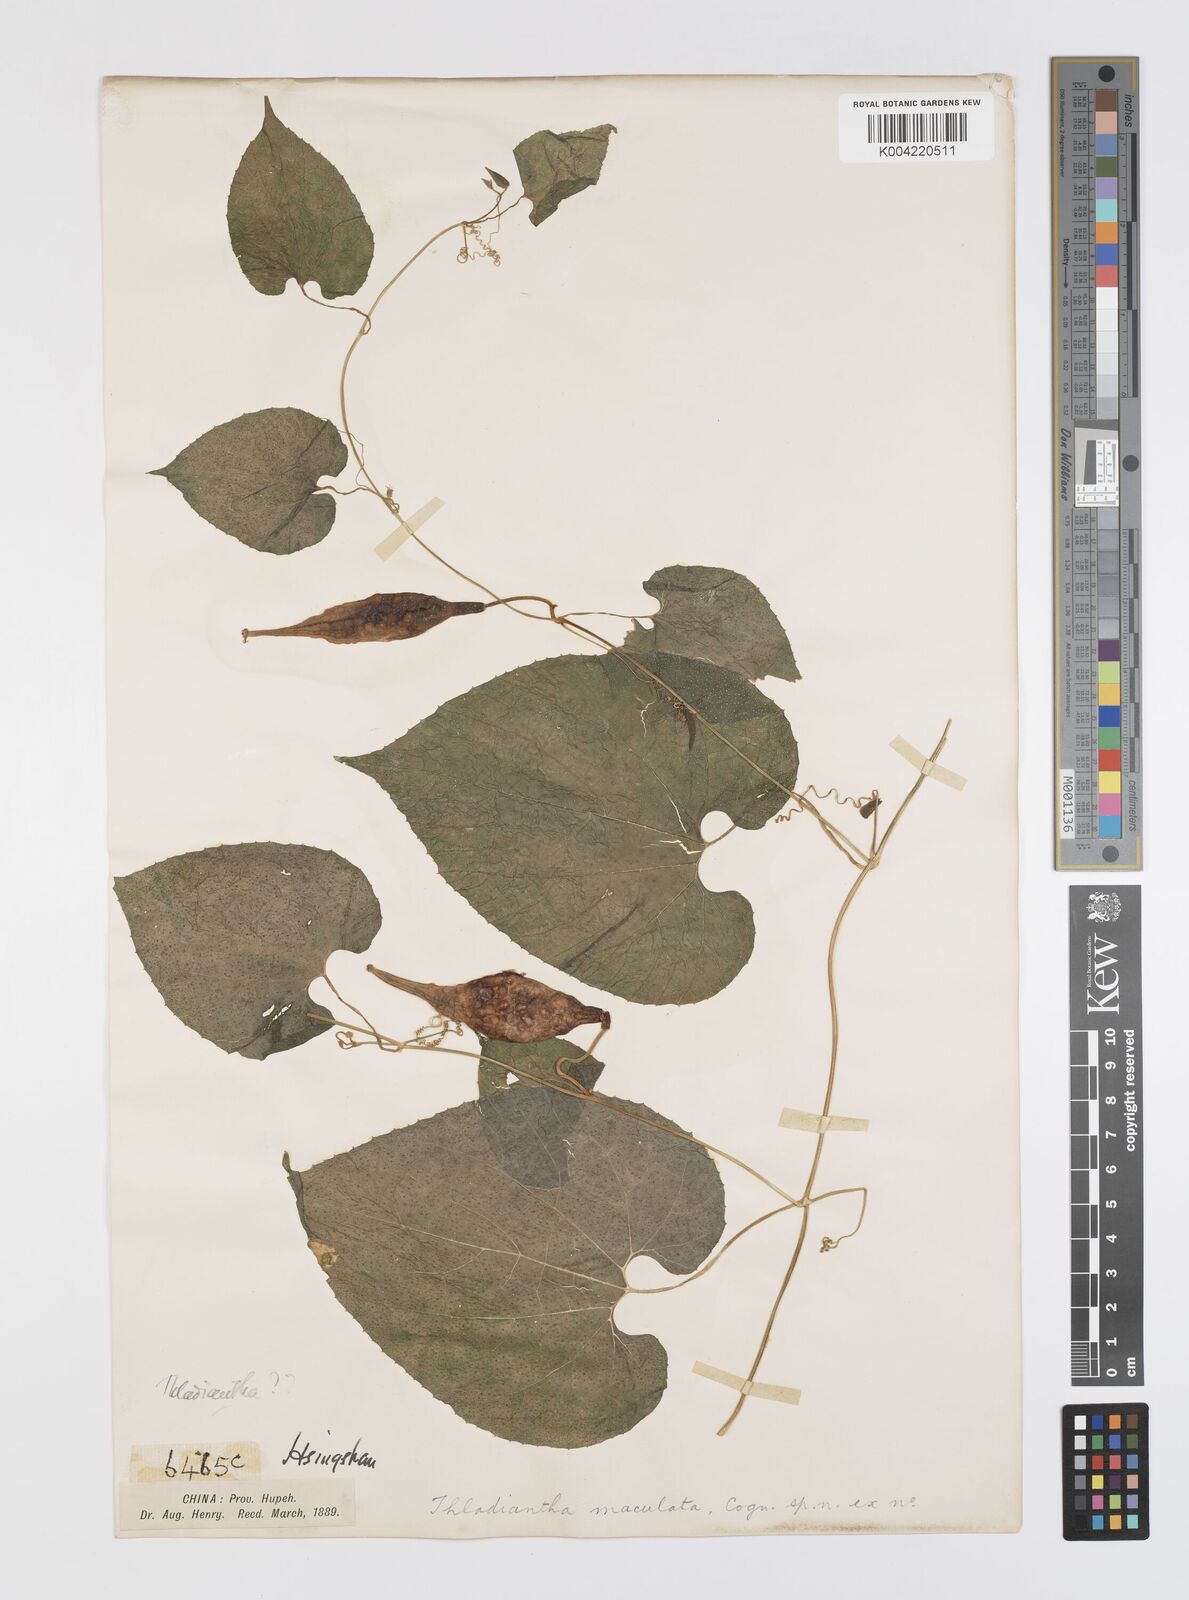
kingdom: Plantae
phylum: Tracheophyta
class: Magnoliopsida
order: Cucurbitales
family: Cucurbitaceae
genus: Thladiantha
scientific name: Thladiantha maculata
